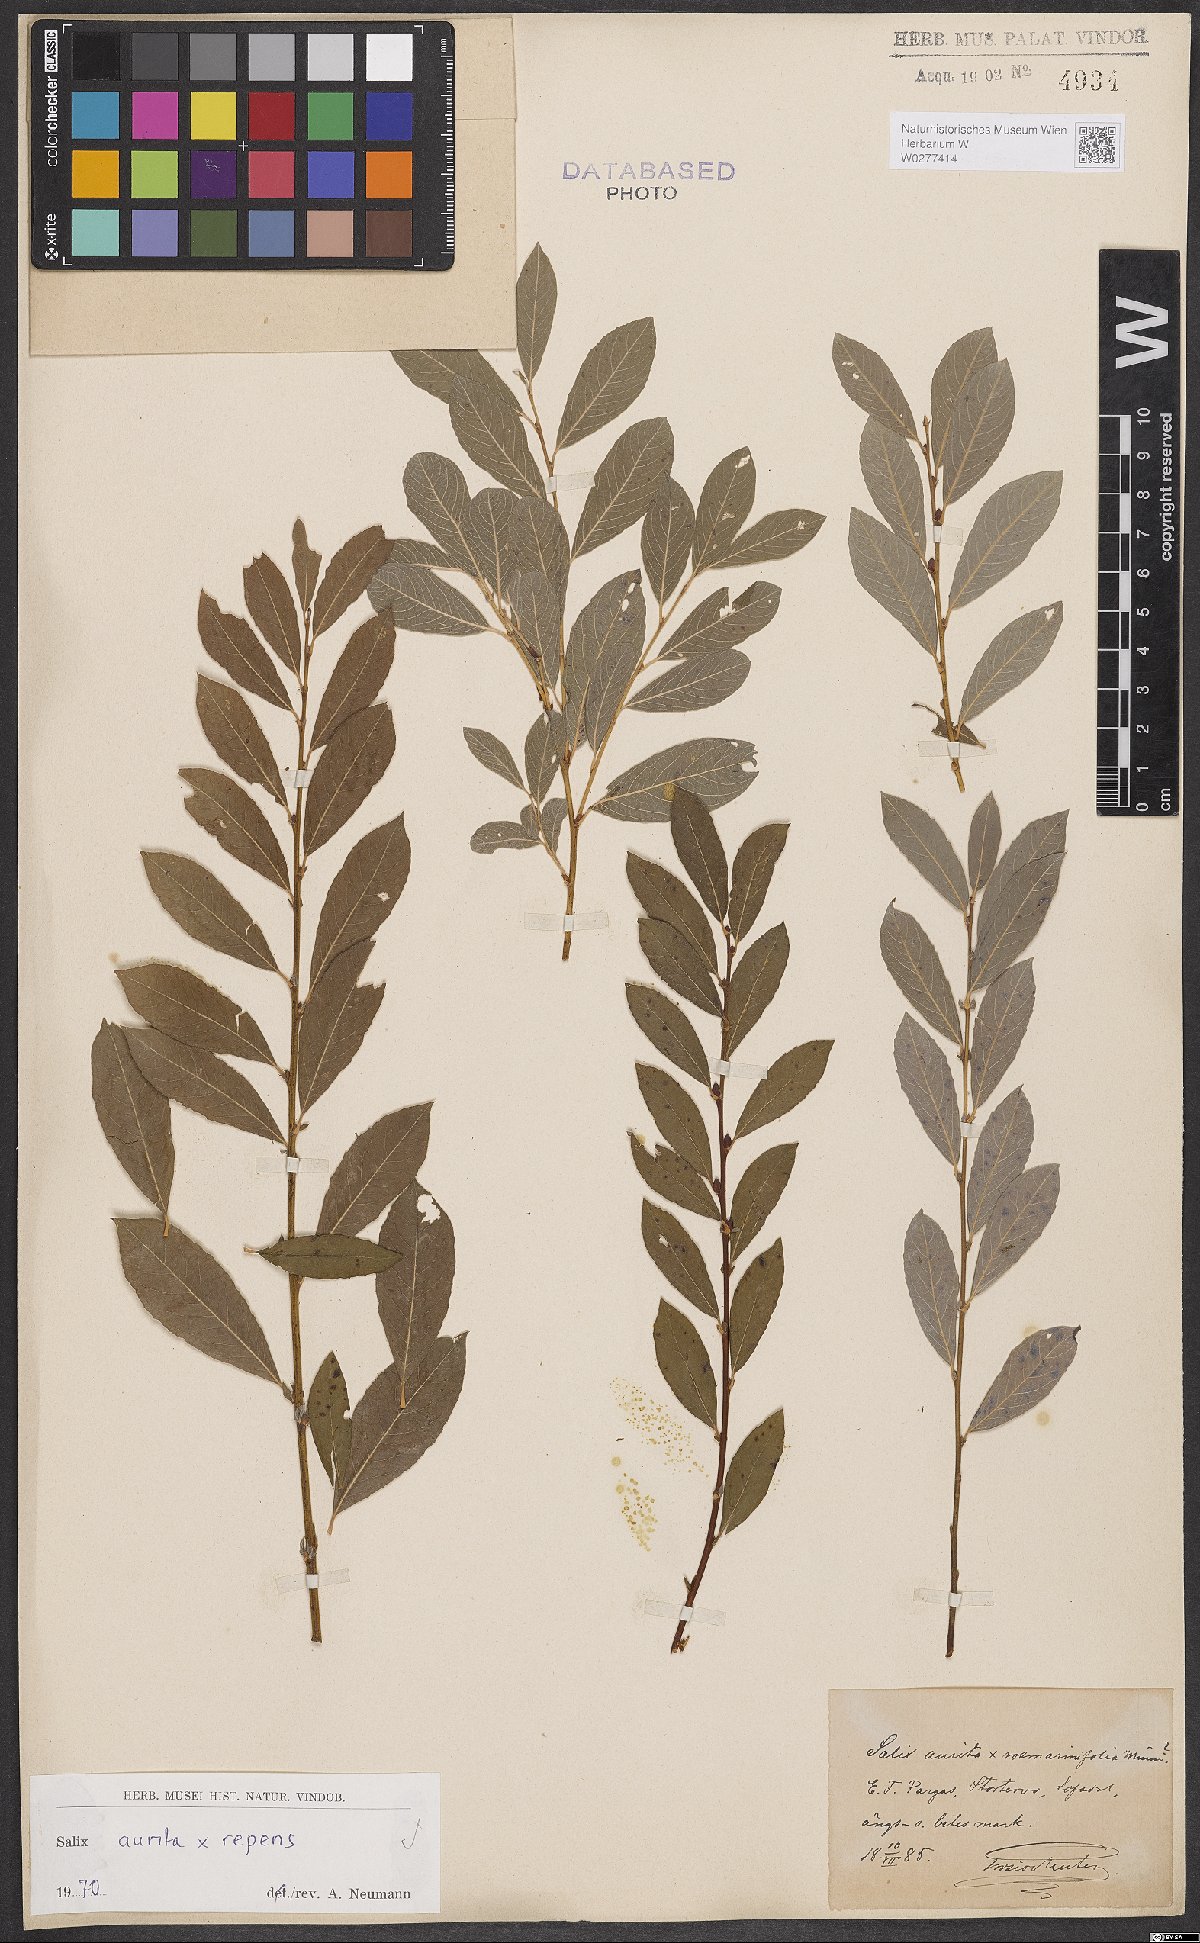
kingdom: Plantae
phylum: Tracheophyta
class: Magnoliopsida
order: Malpighiales
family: Salicaceae
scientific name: Salicaceae
